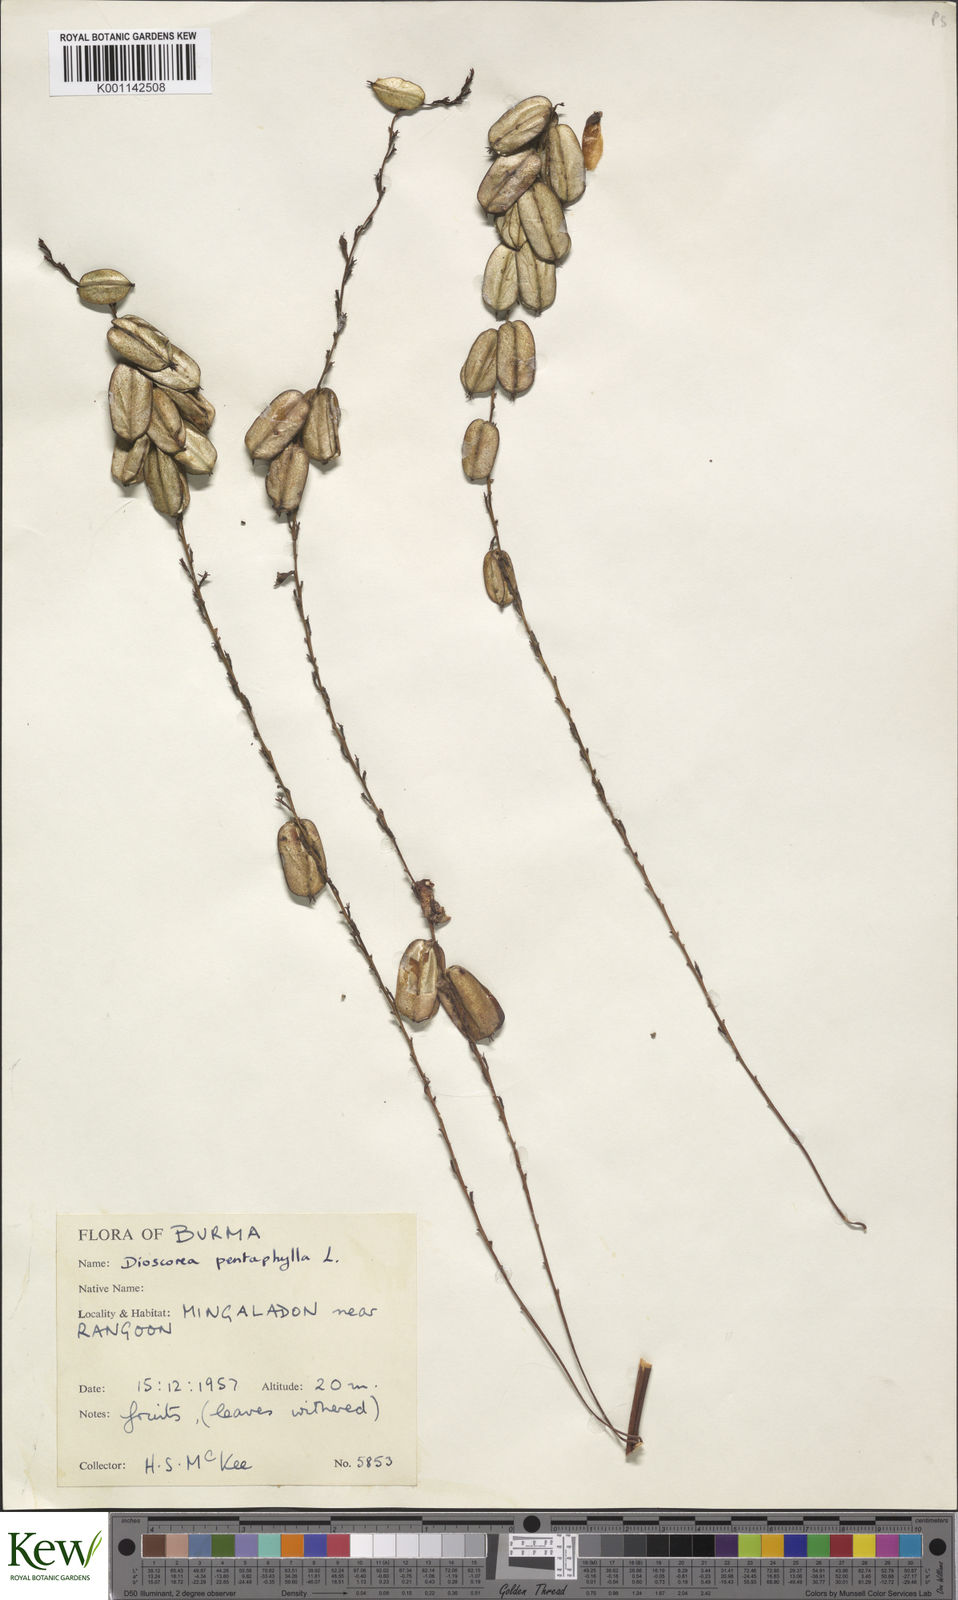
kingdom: Plantae
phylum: Tracheophyta
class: Liliopsida
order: Dioscoreales
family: Dioscoreaceae
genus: Dioscorea
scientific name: Dioscorea pentaphylla
